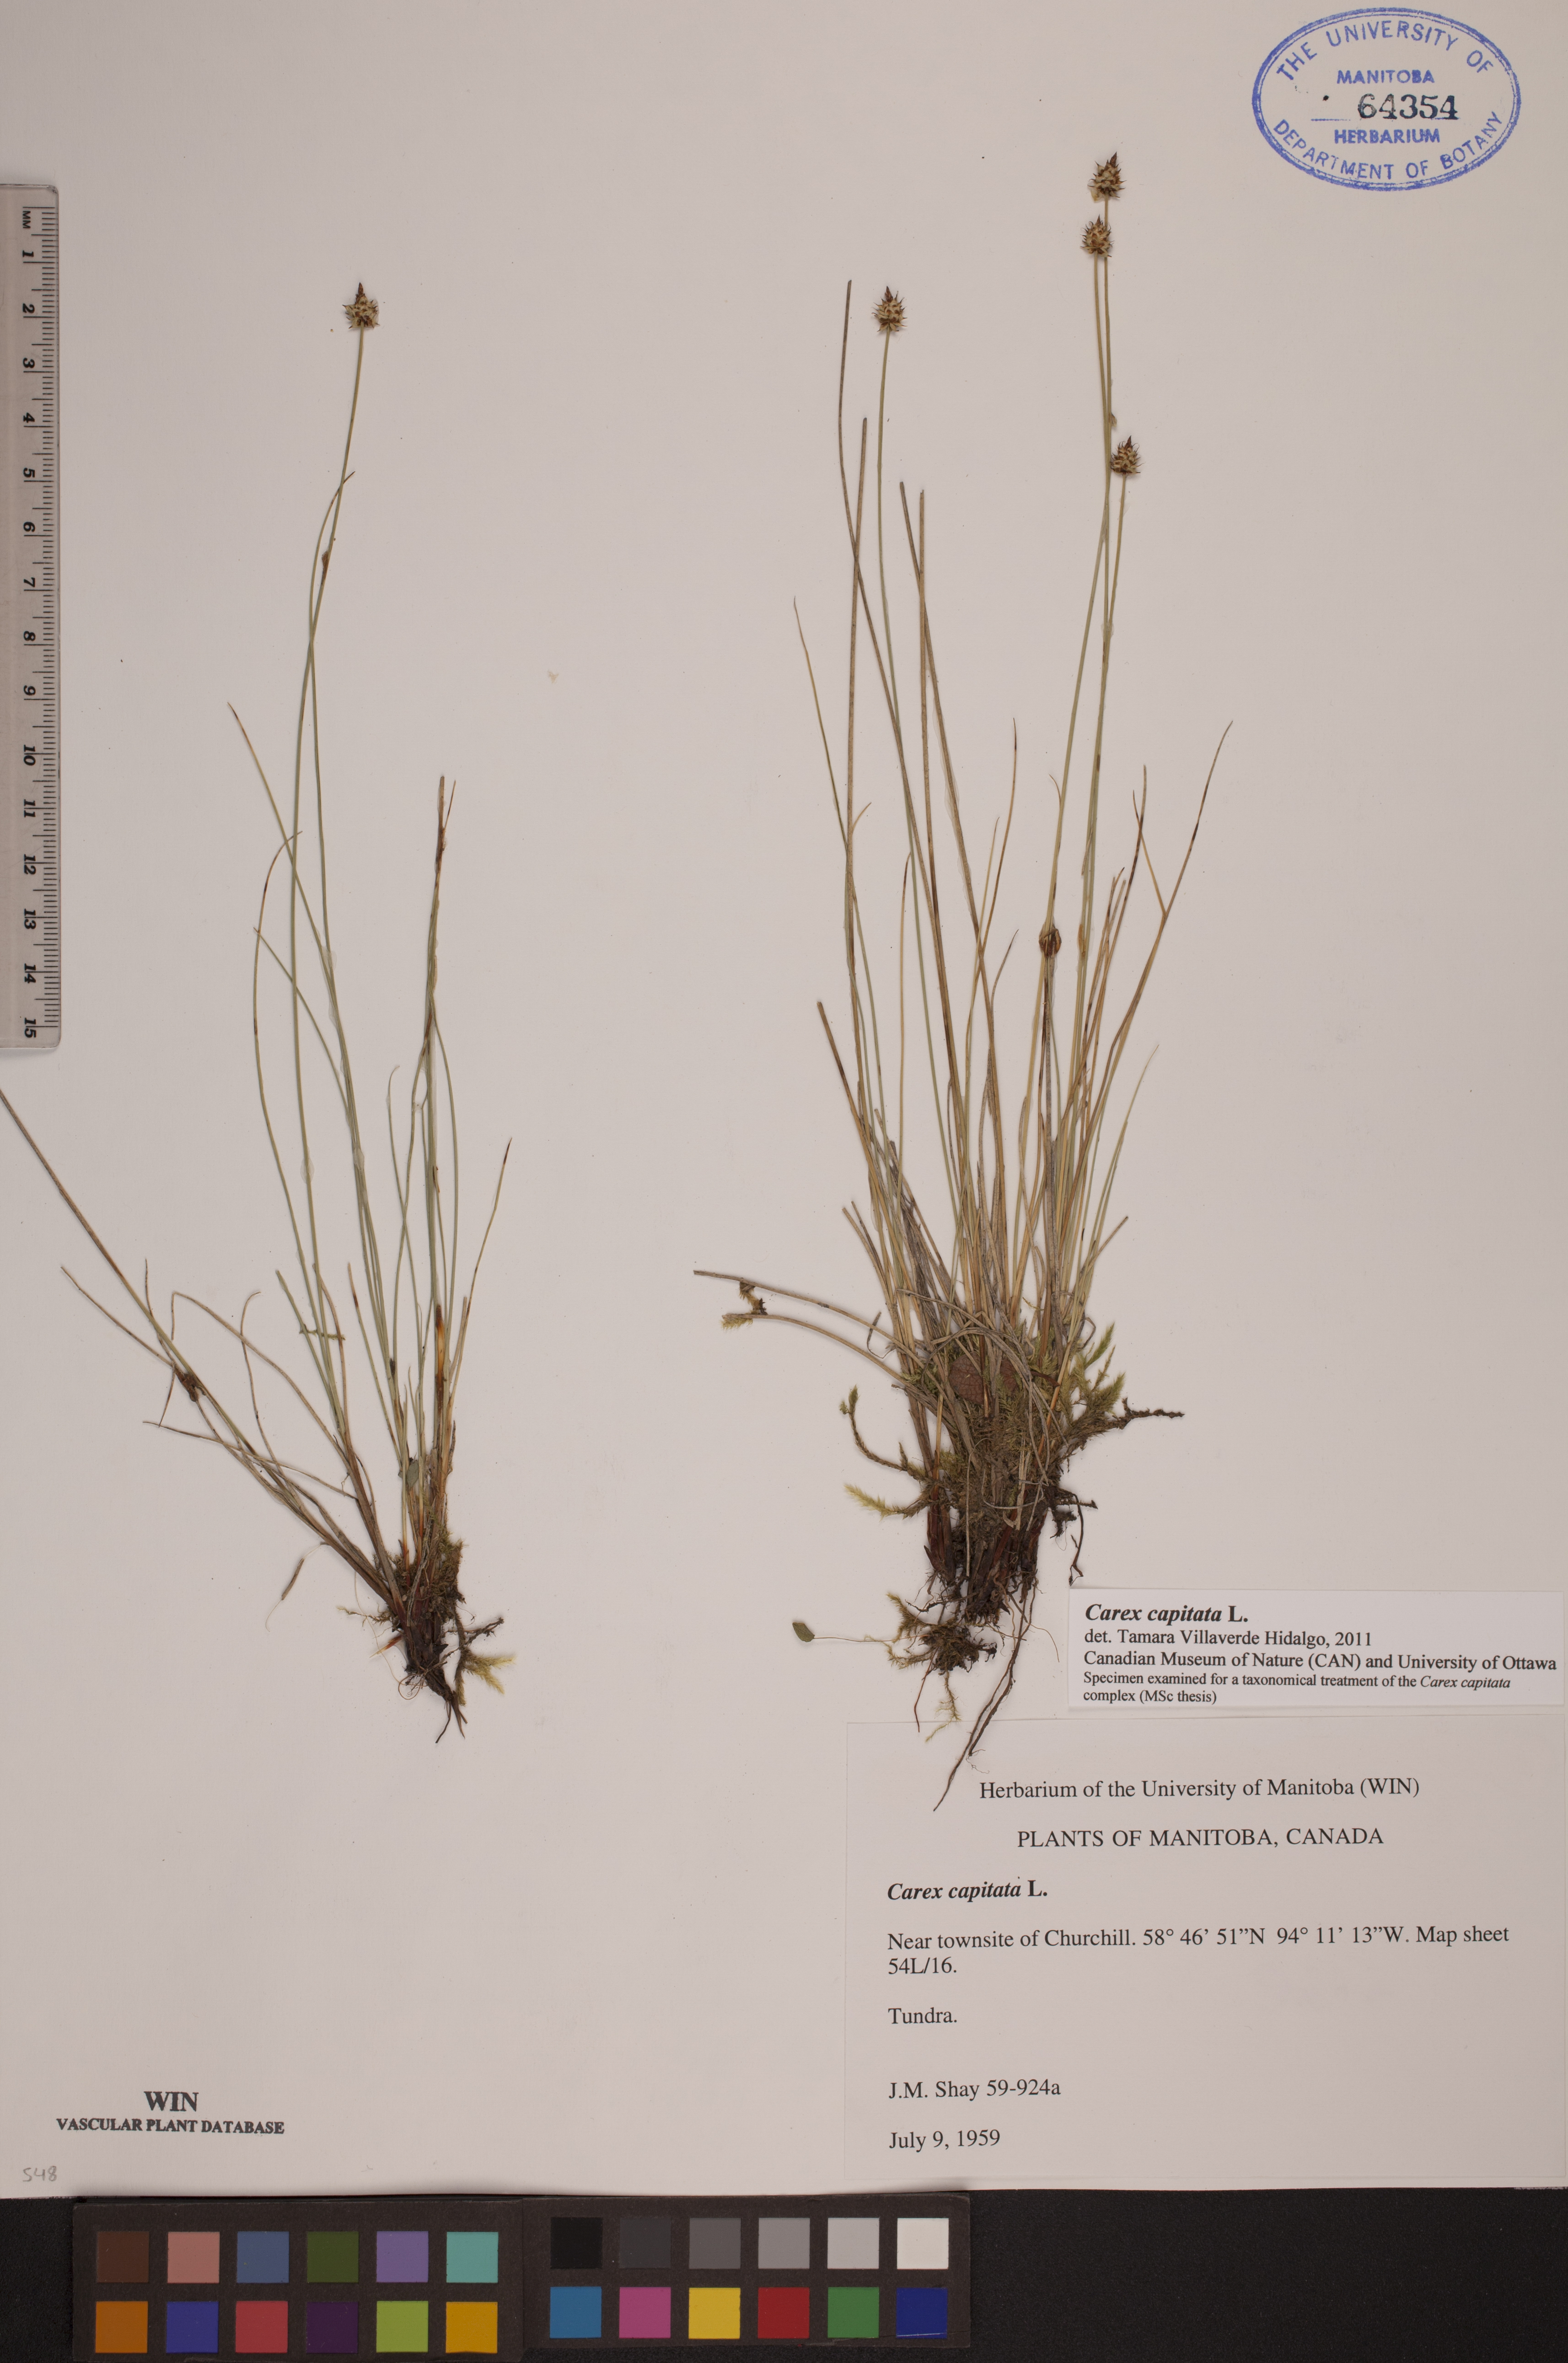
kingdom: Plantae
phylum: Tracheophyta
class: Liliopsida
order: Poales
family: Cyperaceae
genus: Carex
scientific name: Carex capitata
